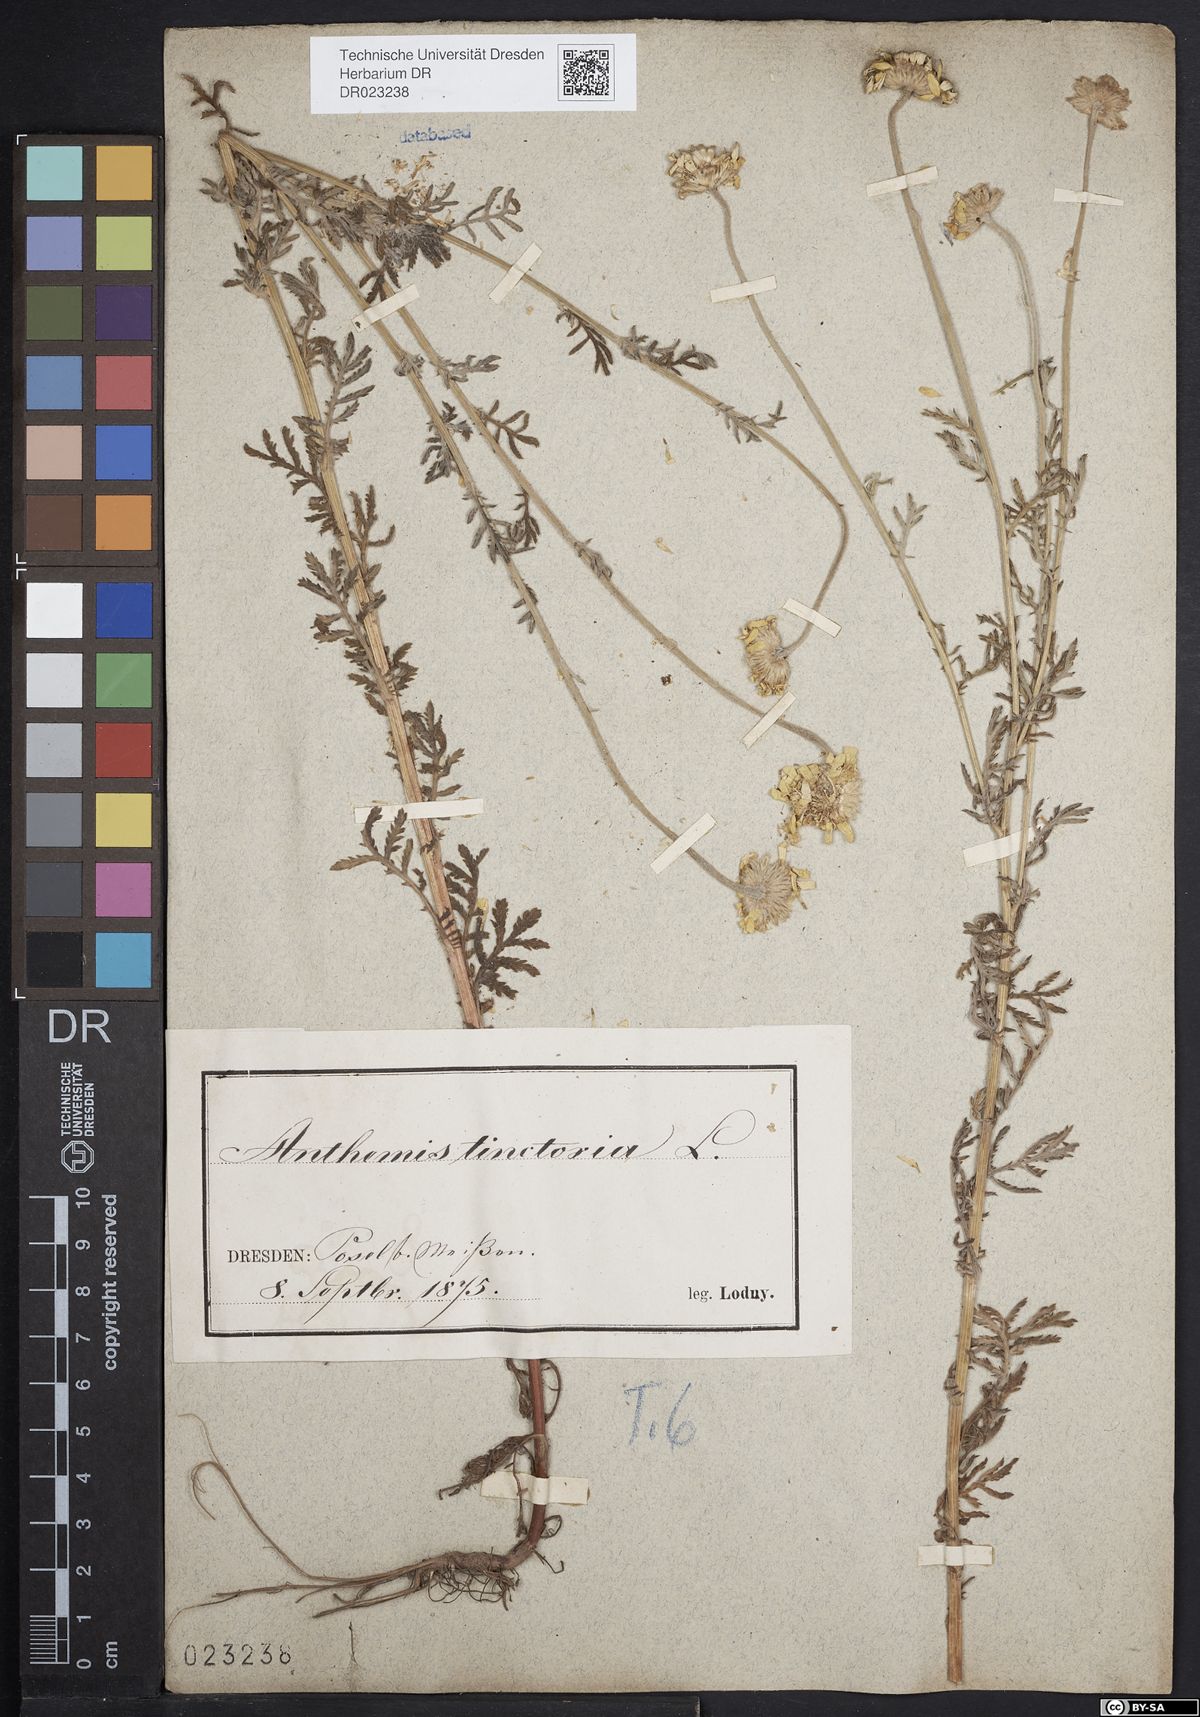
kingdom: Plantae
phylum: Tracheophyta
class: Magnoliopsida
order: Asterales
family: Asteraceae
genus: Cota
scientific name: Cota tinctoria
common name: Golden chamomile
